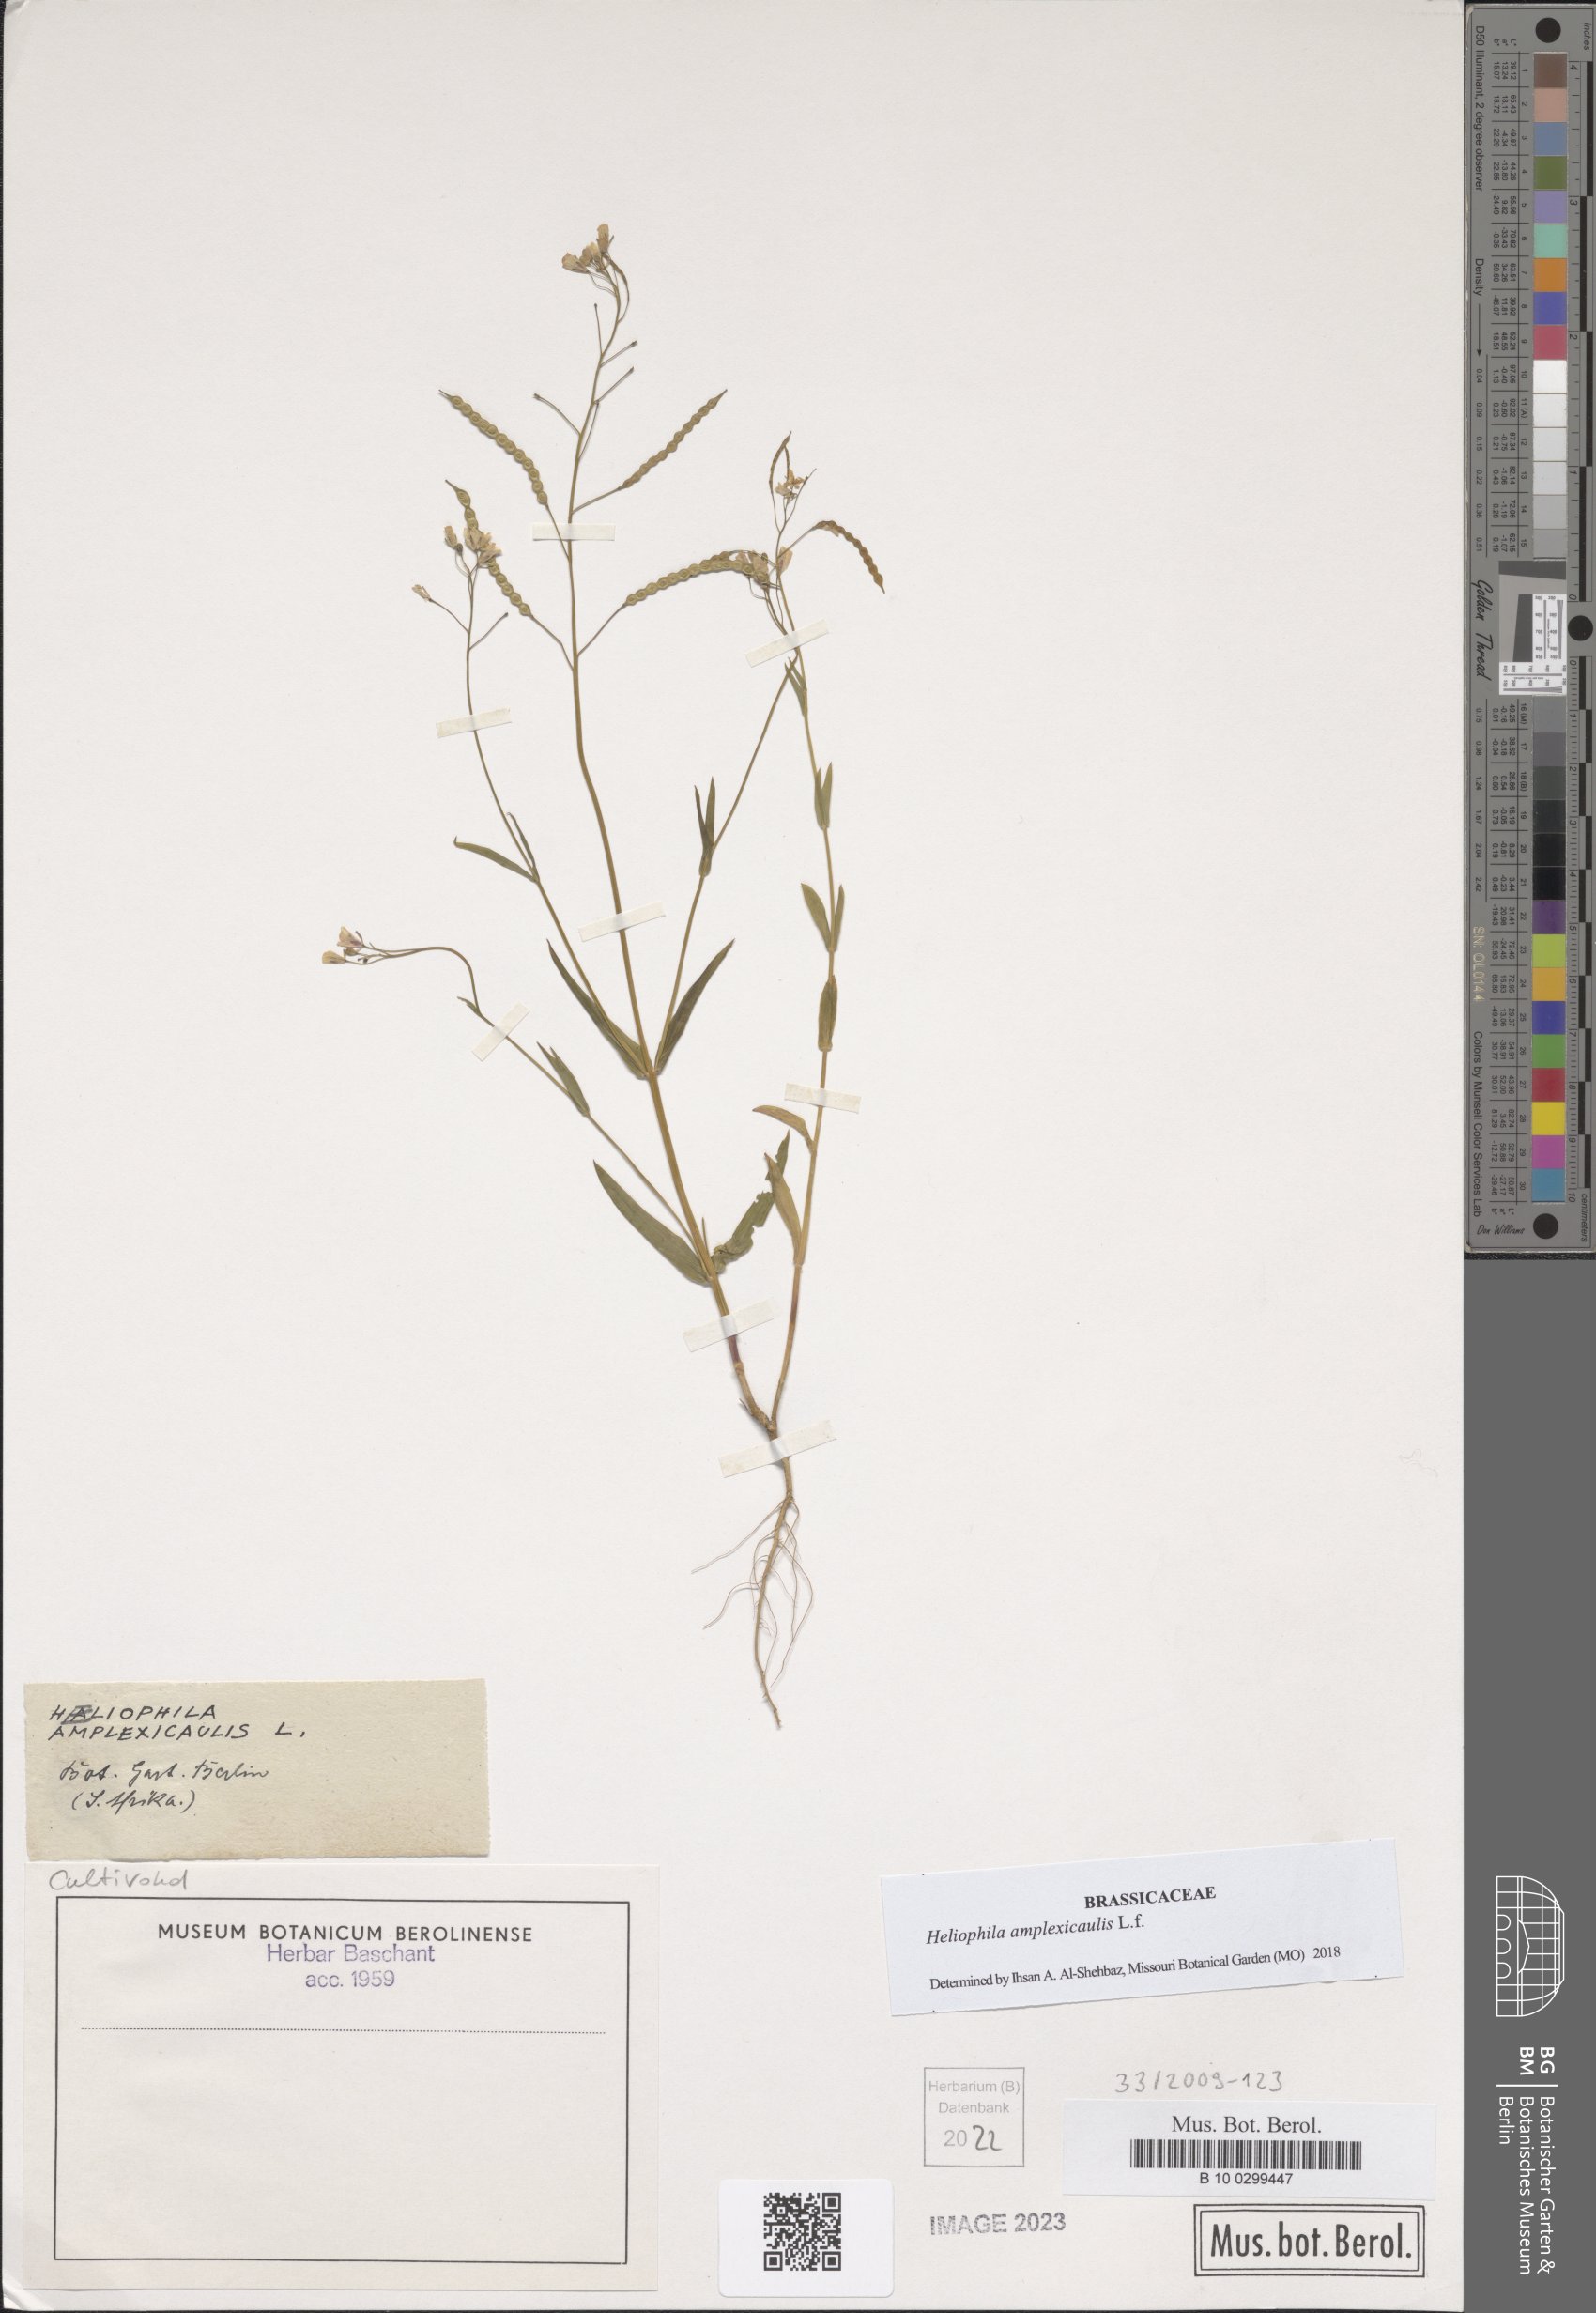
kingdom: Plantae
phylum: Tracheophyta
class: Magnoliopsida
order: Brassicales
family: Brassicaceae
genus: Heliophila
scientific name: Heliophila amplexicaulis
